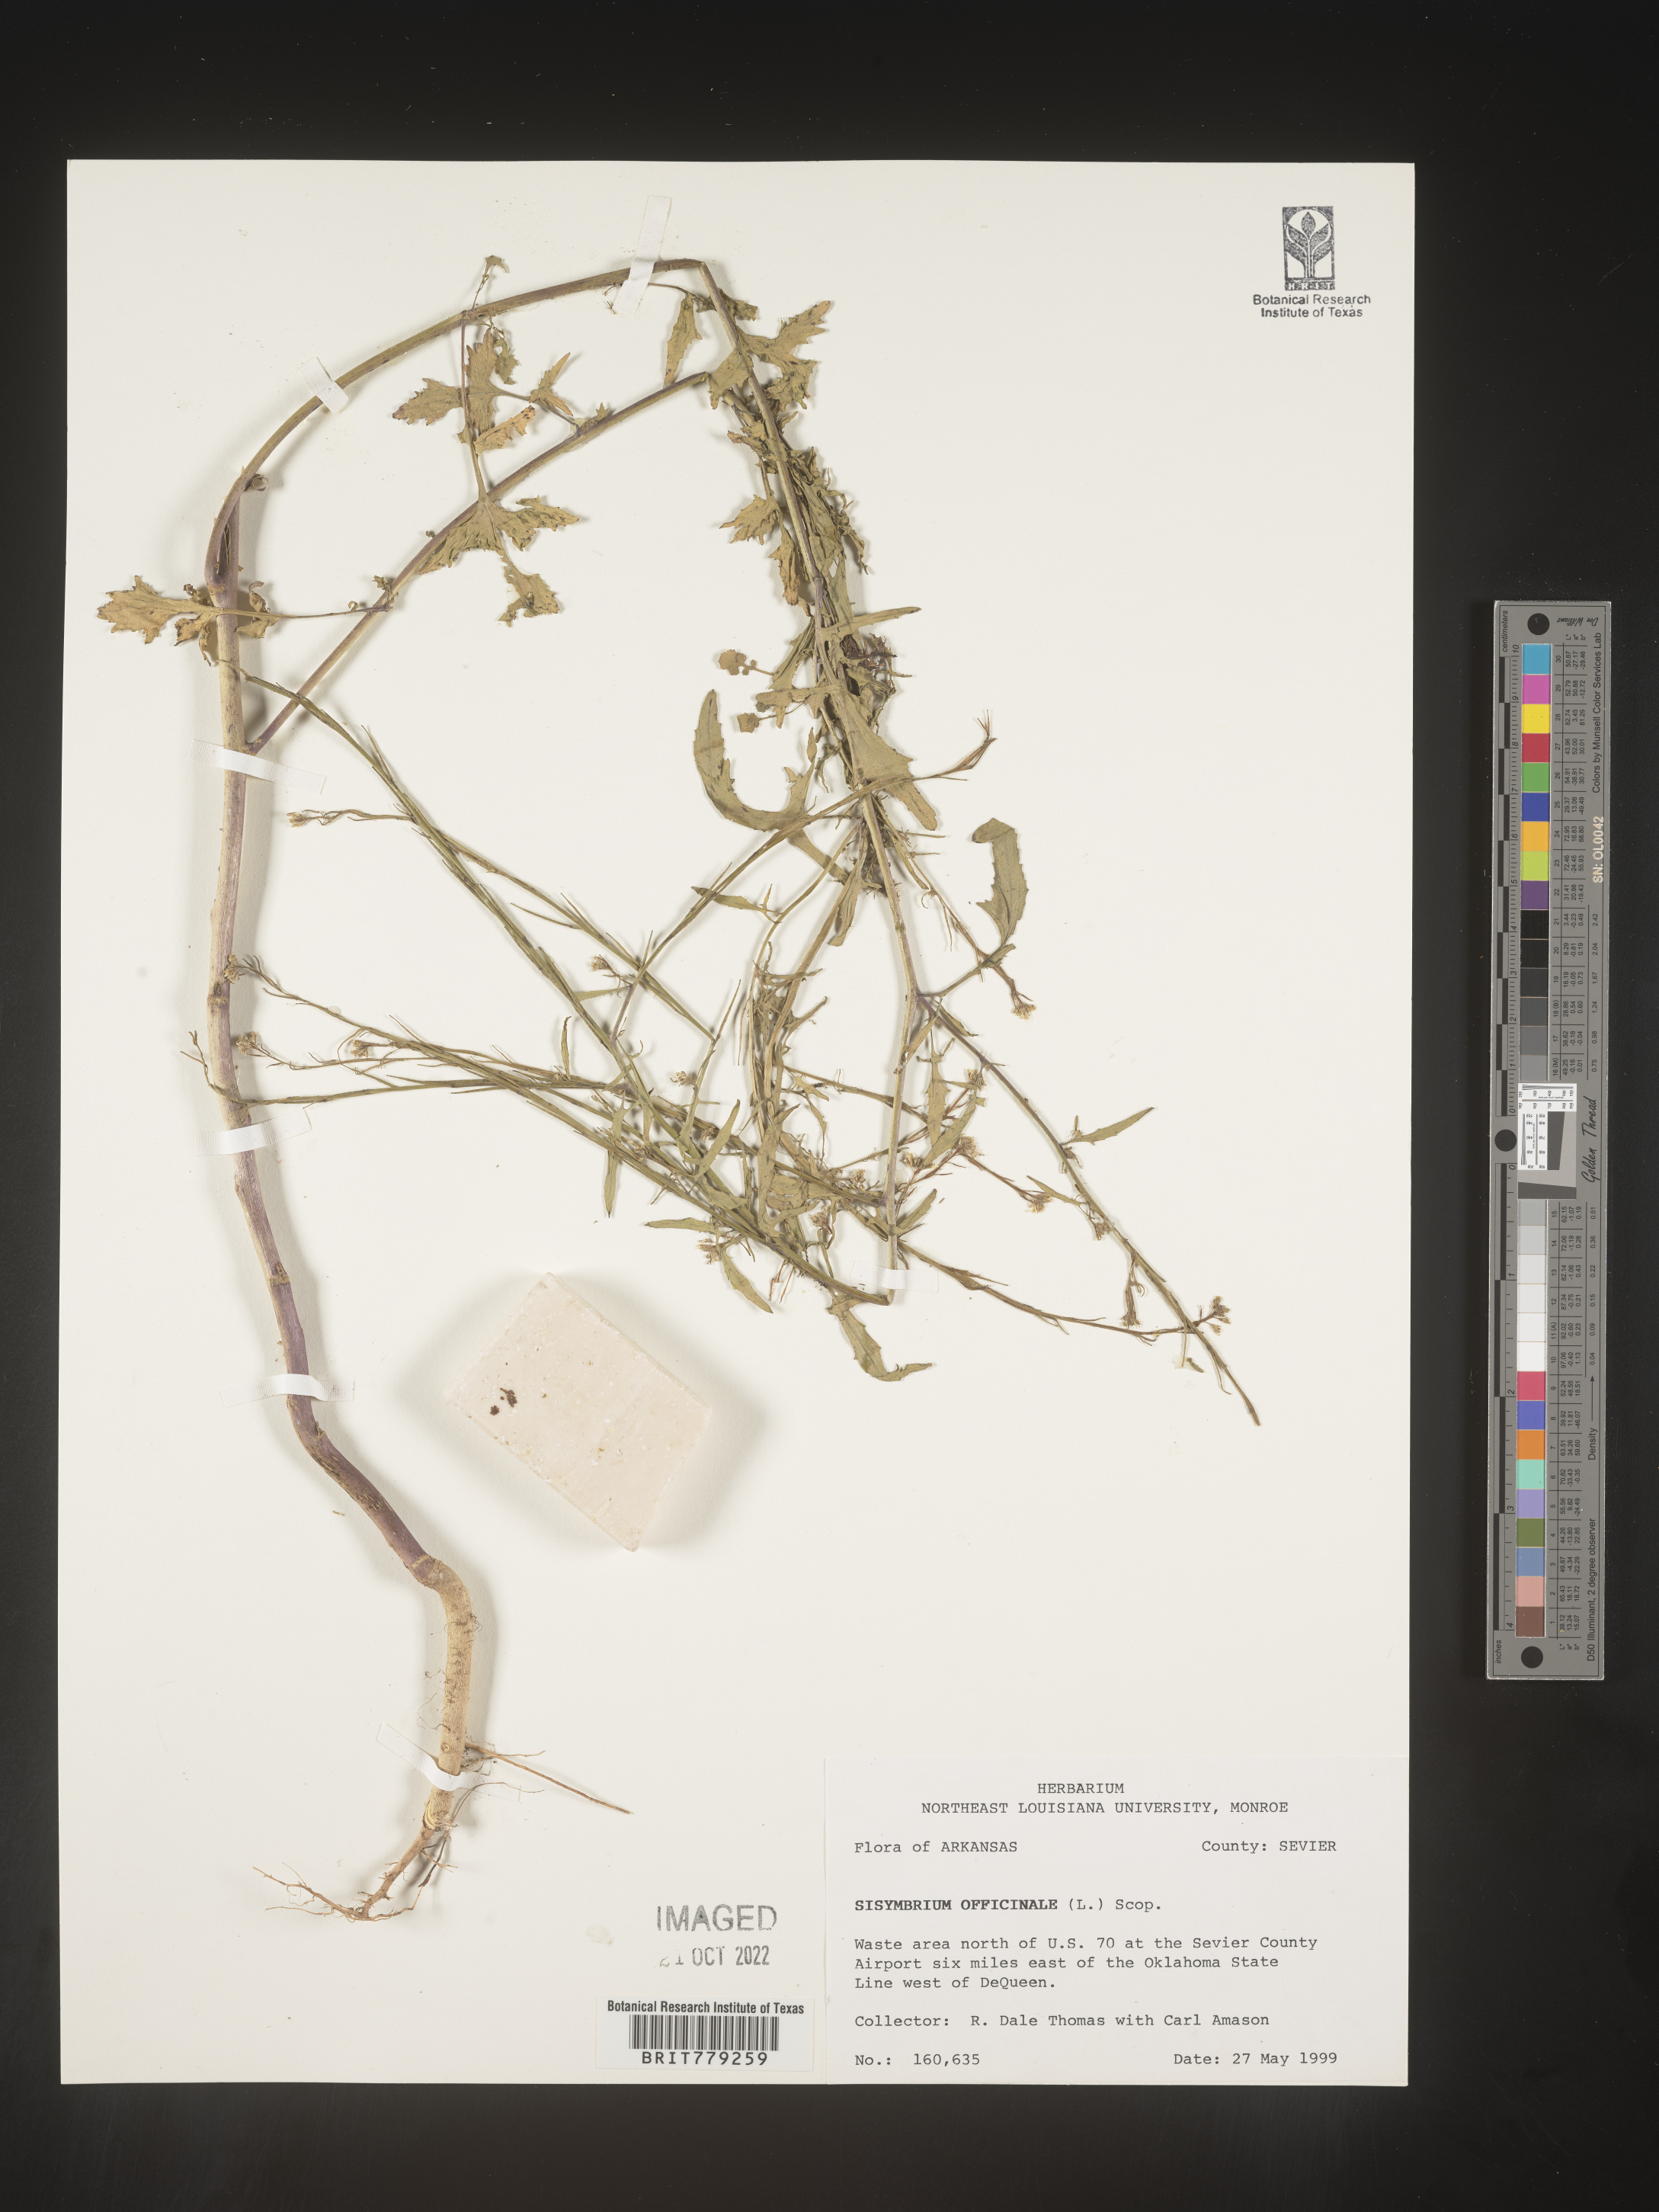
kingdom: Plantae
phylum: Tracheophyta
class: Magnoliopsida
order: Brassicales
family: Brassicaceae
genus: Sisymbrium
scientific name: Sisymbrium officinale
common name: Hedge mustard
